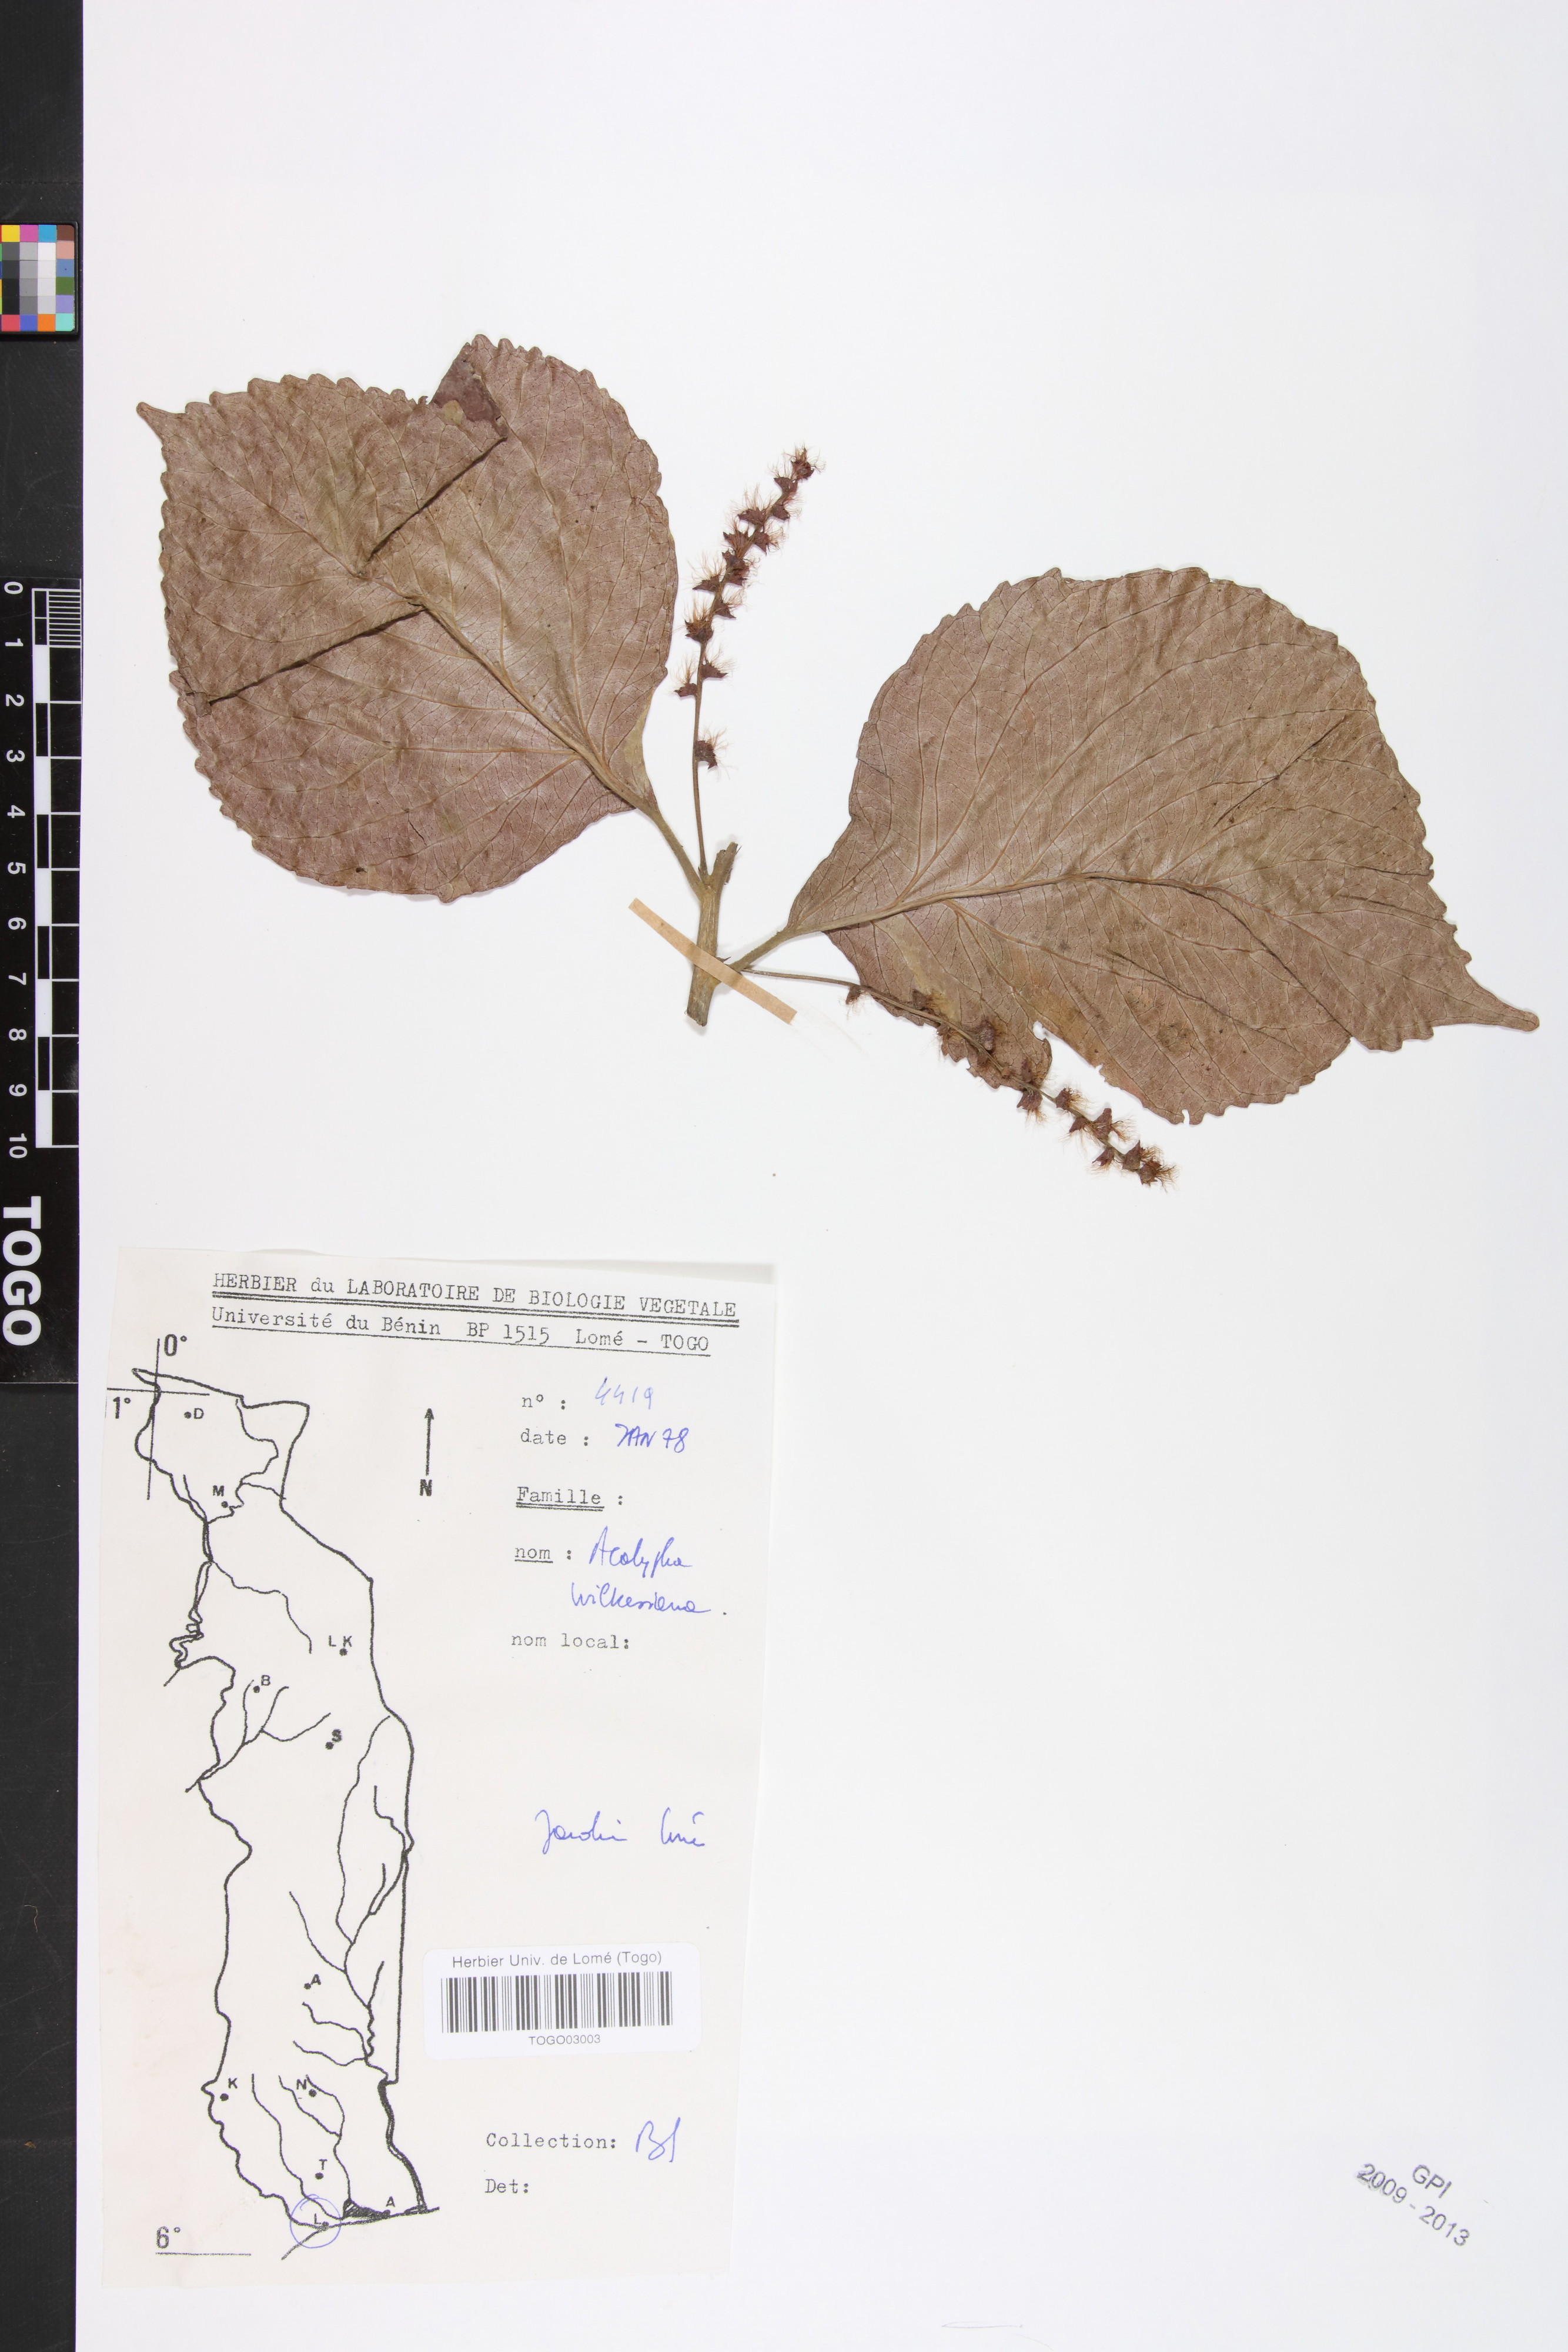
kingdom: Plantae
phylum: Tracheophyta
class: Magnoliopsida
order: Malpighiales
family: Euphorbiaceae
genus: Acalypha
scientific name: Acalypha paniculata
